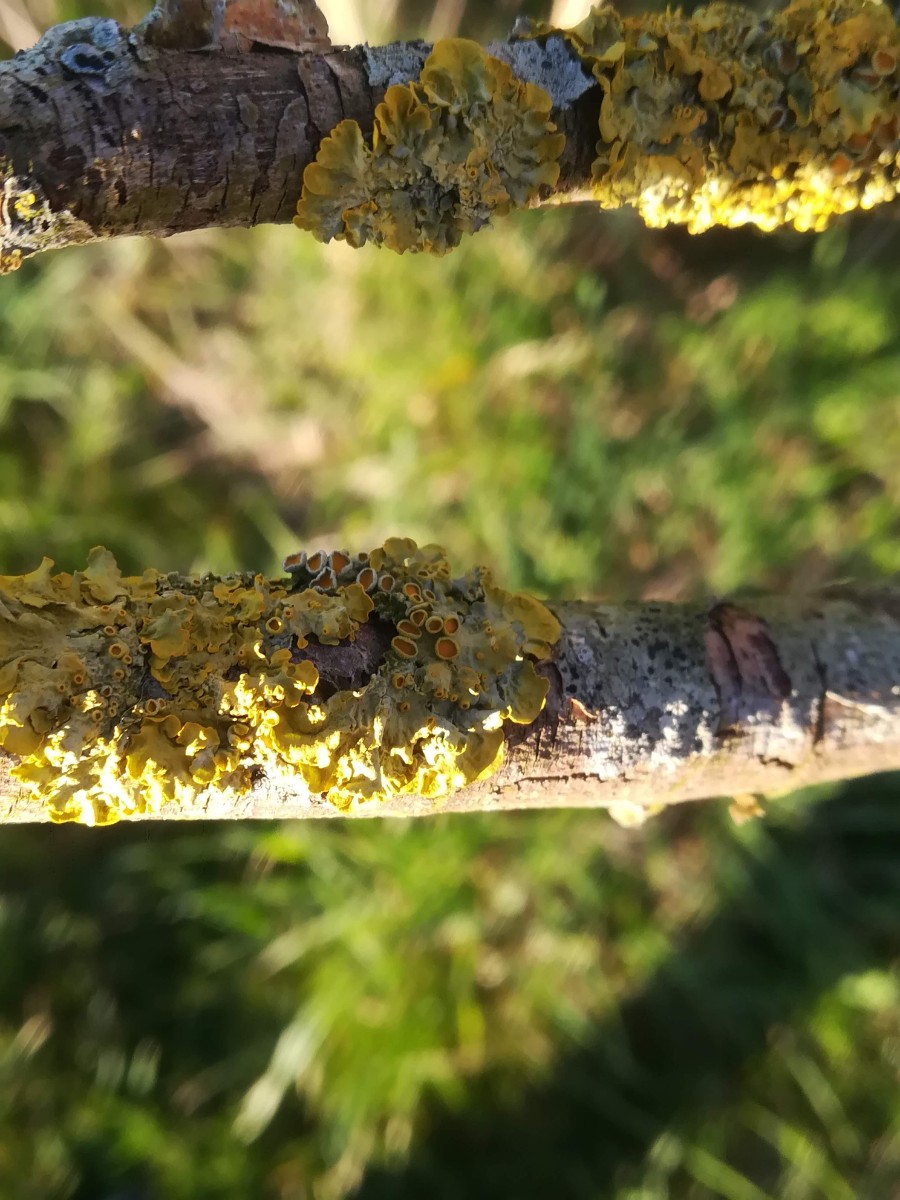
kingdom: Fungi
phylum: Ascomycota
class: Lecanoromycetes
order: Teloschistales
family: Teloschistaceae
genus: Xanthoria
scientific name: Xanthoria parietina
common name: almindelig væggelav
